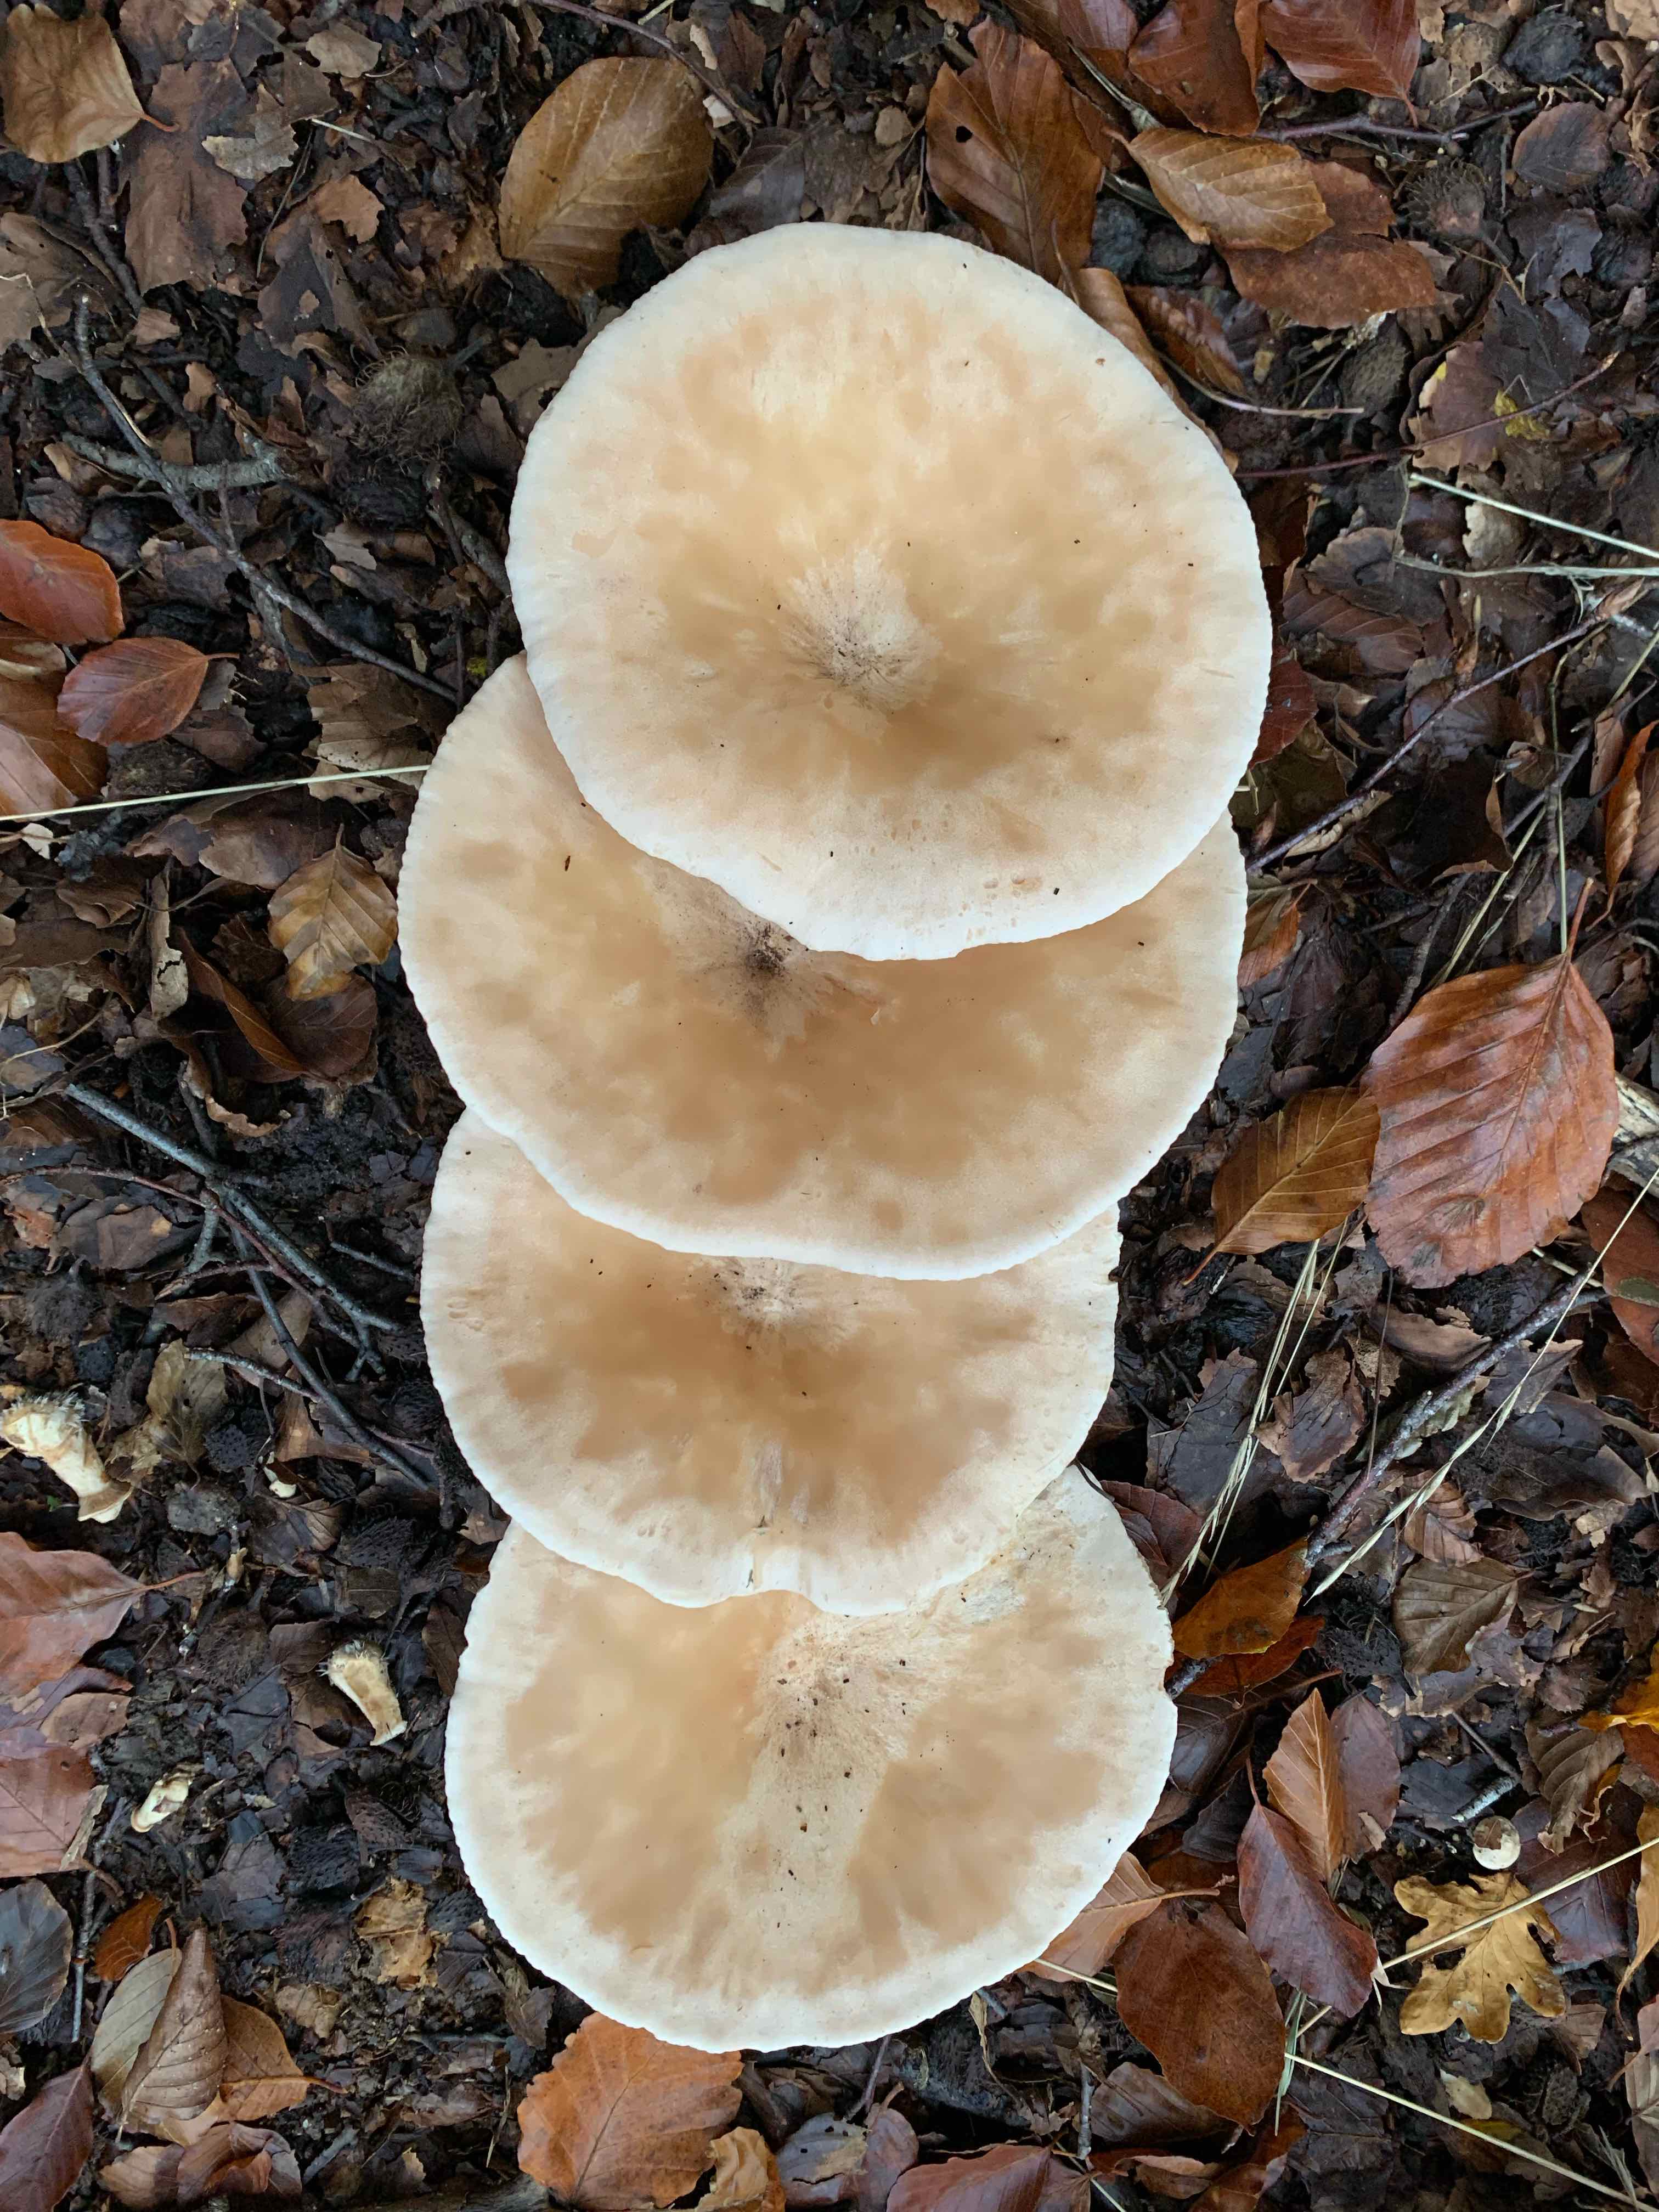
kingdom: Fungi
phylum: Basidiomycota
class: Agaricomycetes
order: Agaricales
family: Tricholomataceae
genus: Infundibulicybe
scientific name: Infundibulicybe geotropa
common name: stor tragthat
